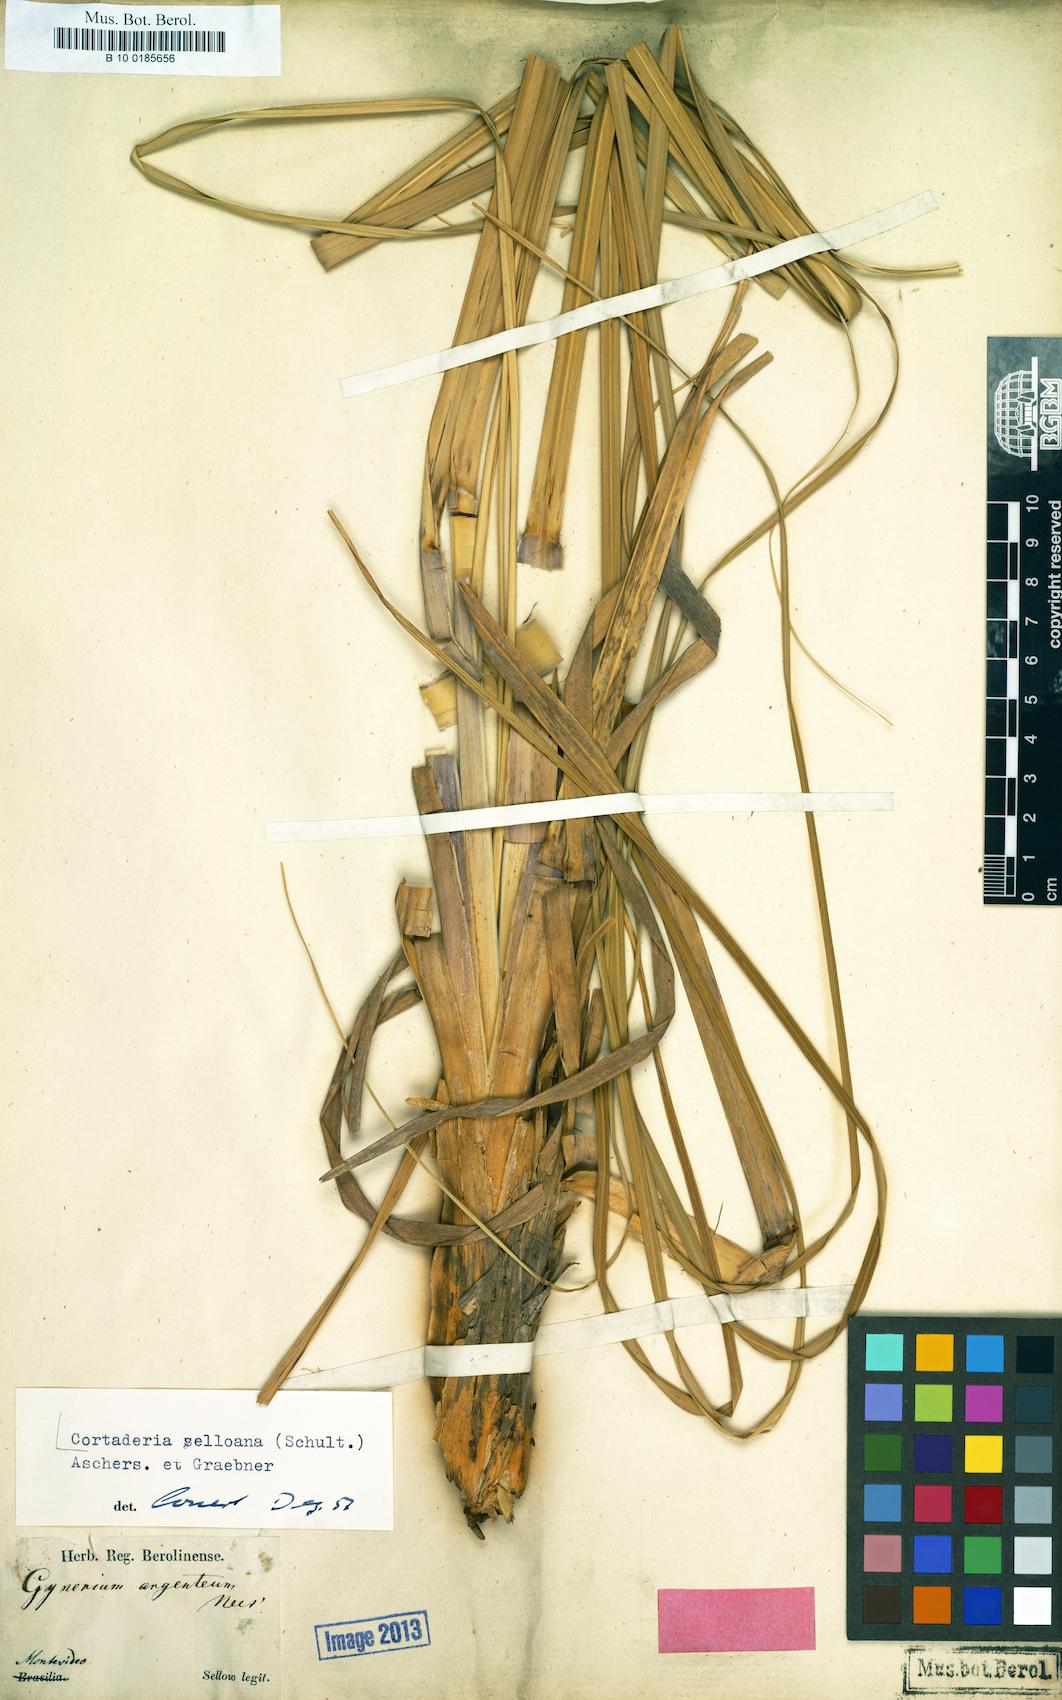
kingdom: Plantae
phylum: Tracheophyta
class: Liliopsida
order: Poales
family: Poaceae
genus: Cortaderia
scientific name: Cortaderia selloana
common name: Uruguayan pampas grass
